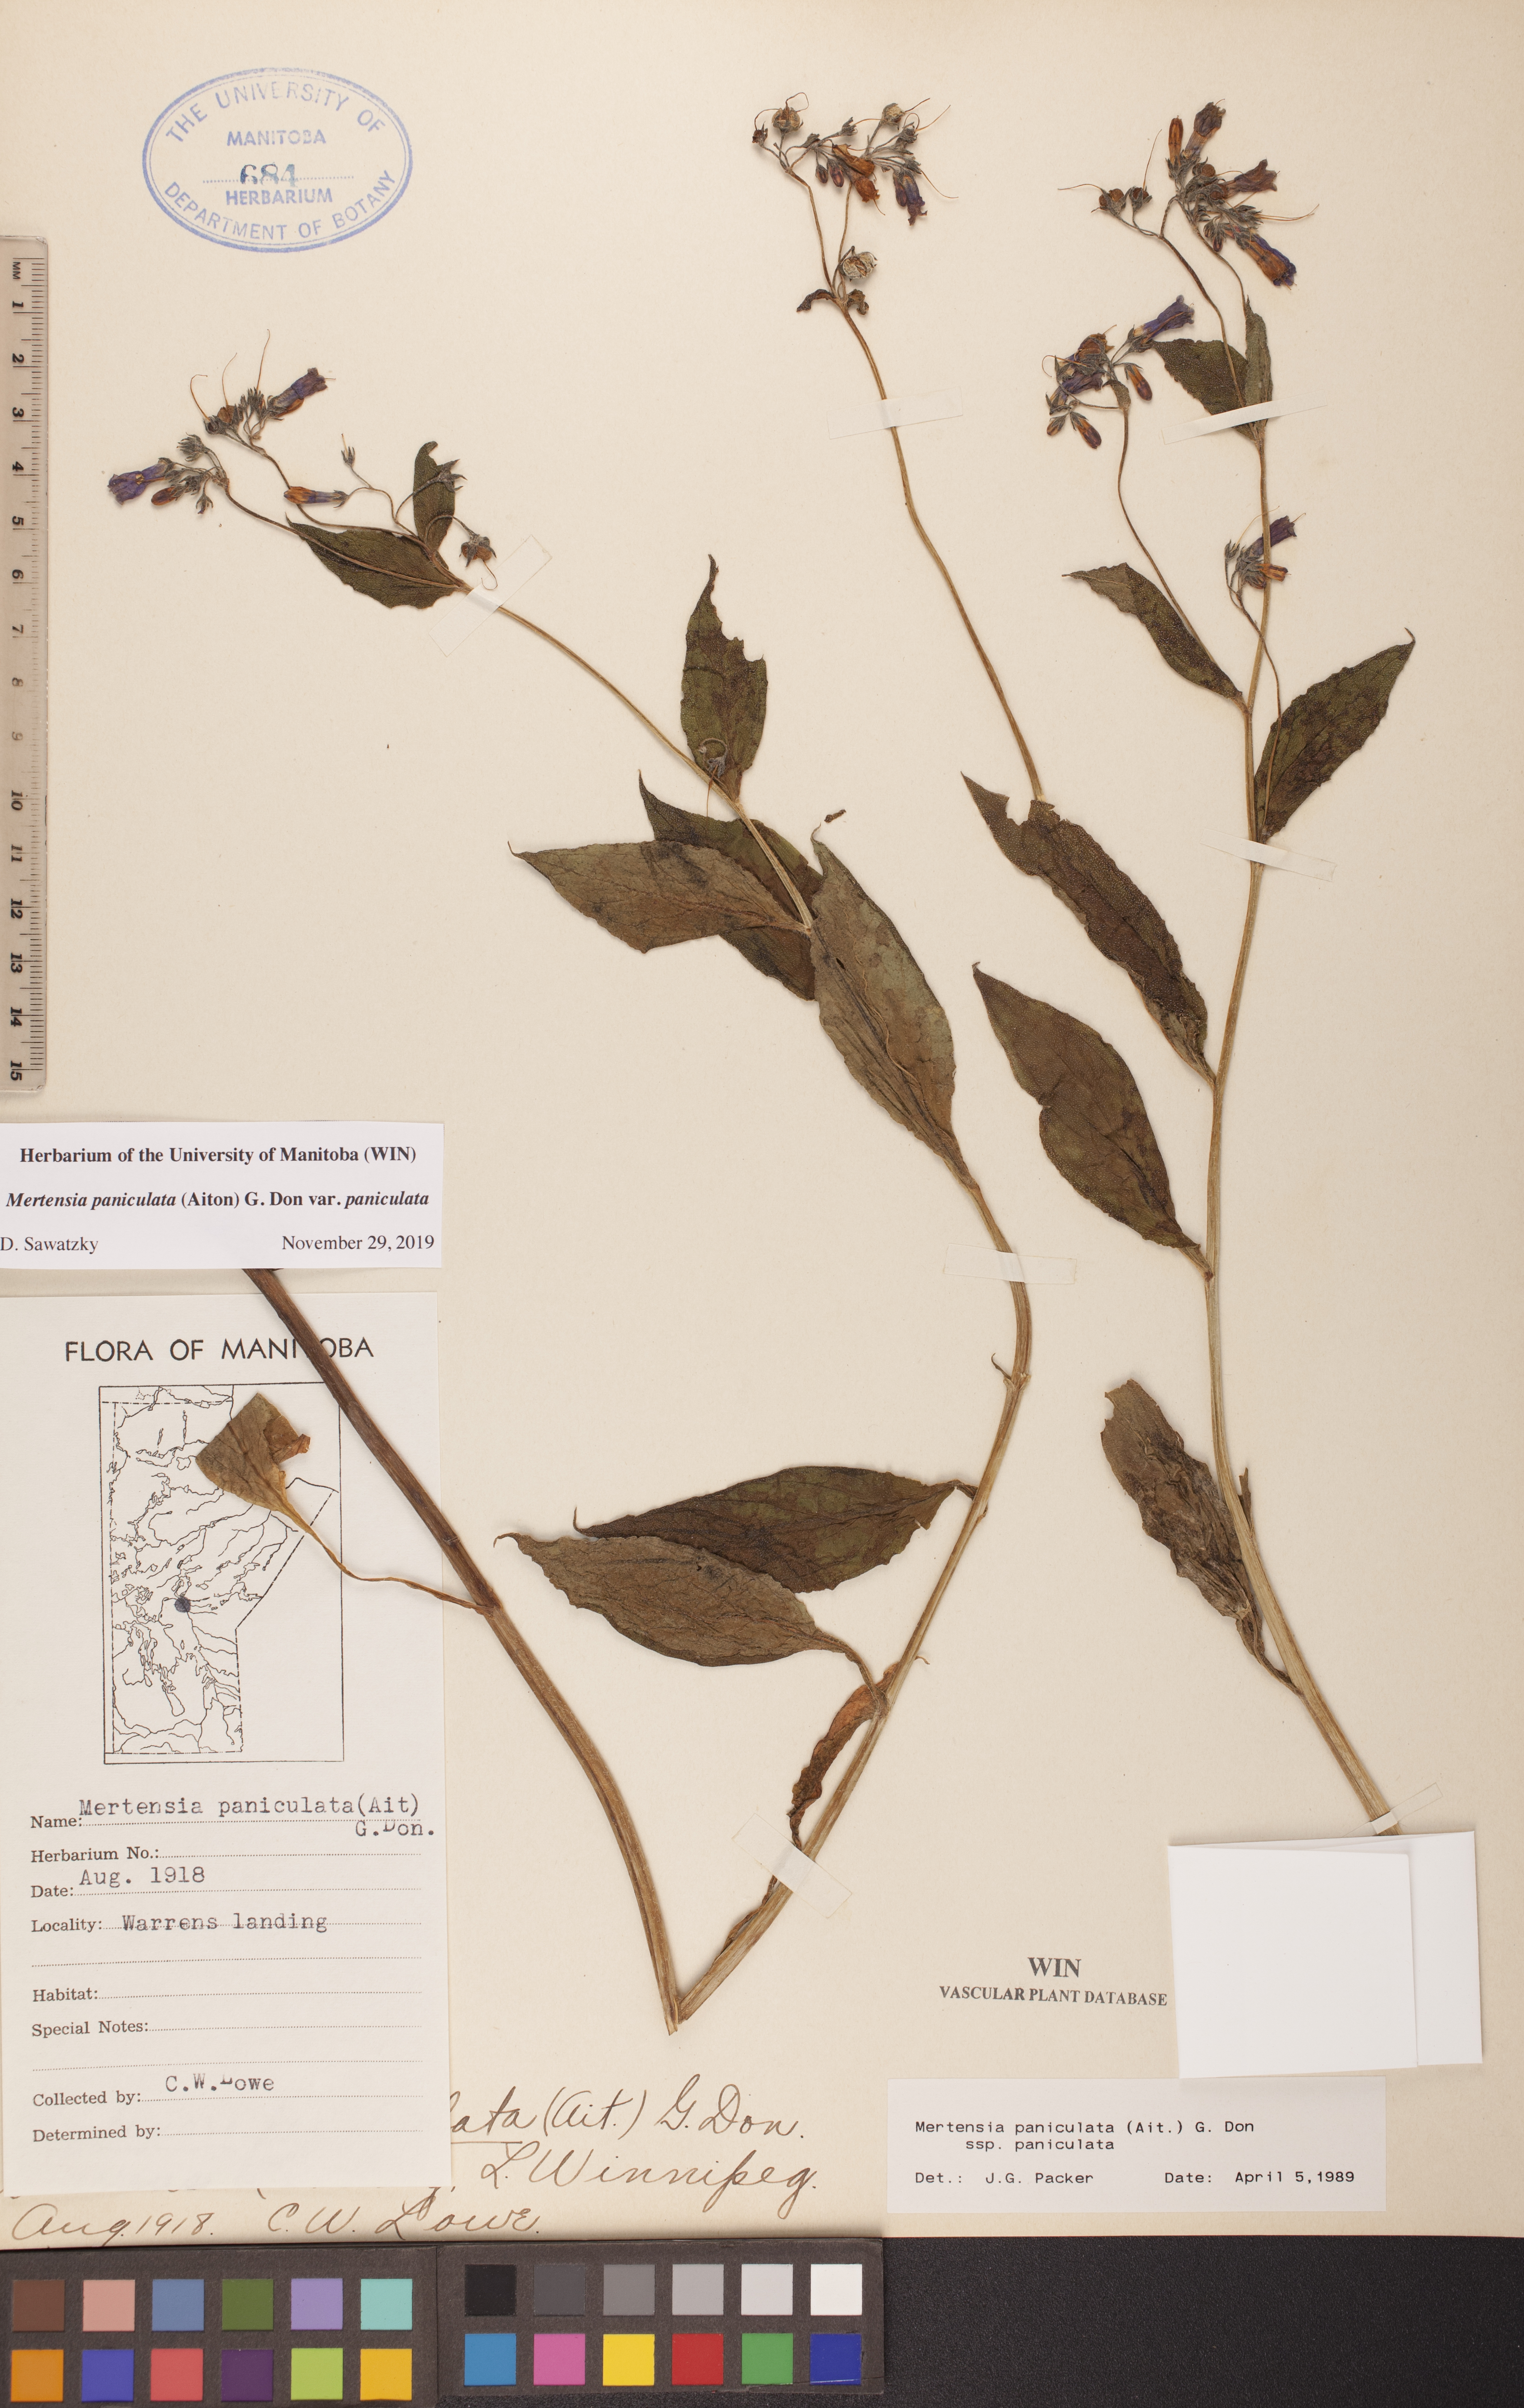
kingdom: Plantae
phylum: Tracheophyta
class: Magnoliopsida
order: Boraginales
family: Boraginaceae
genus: Mertensia
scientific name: Mertensia paniculata
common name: Panicled bluebells
